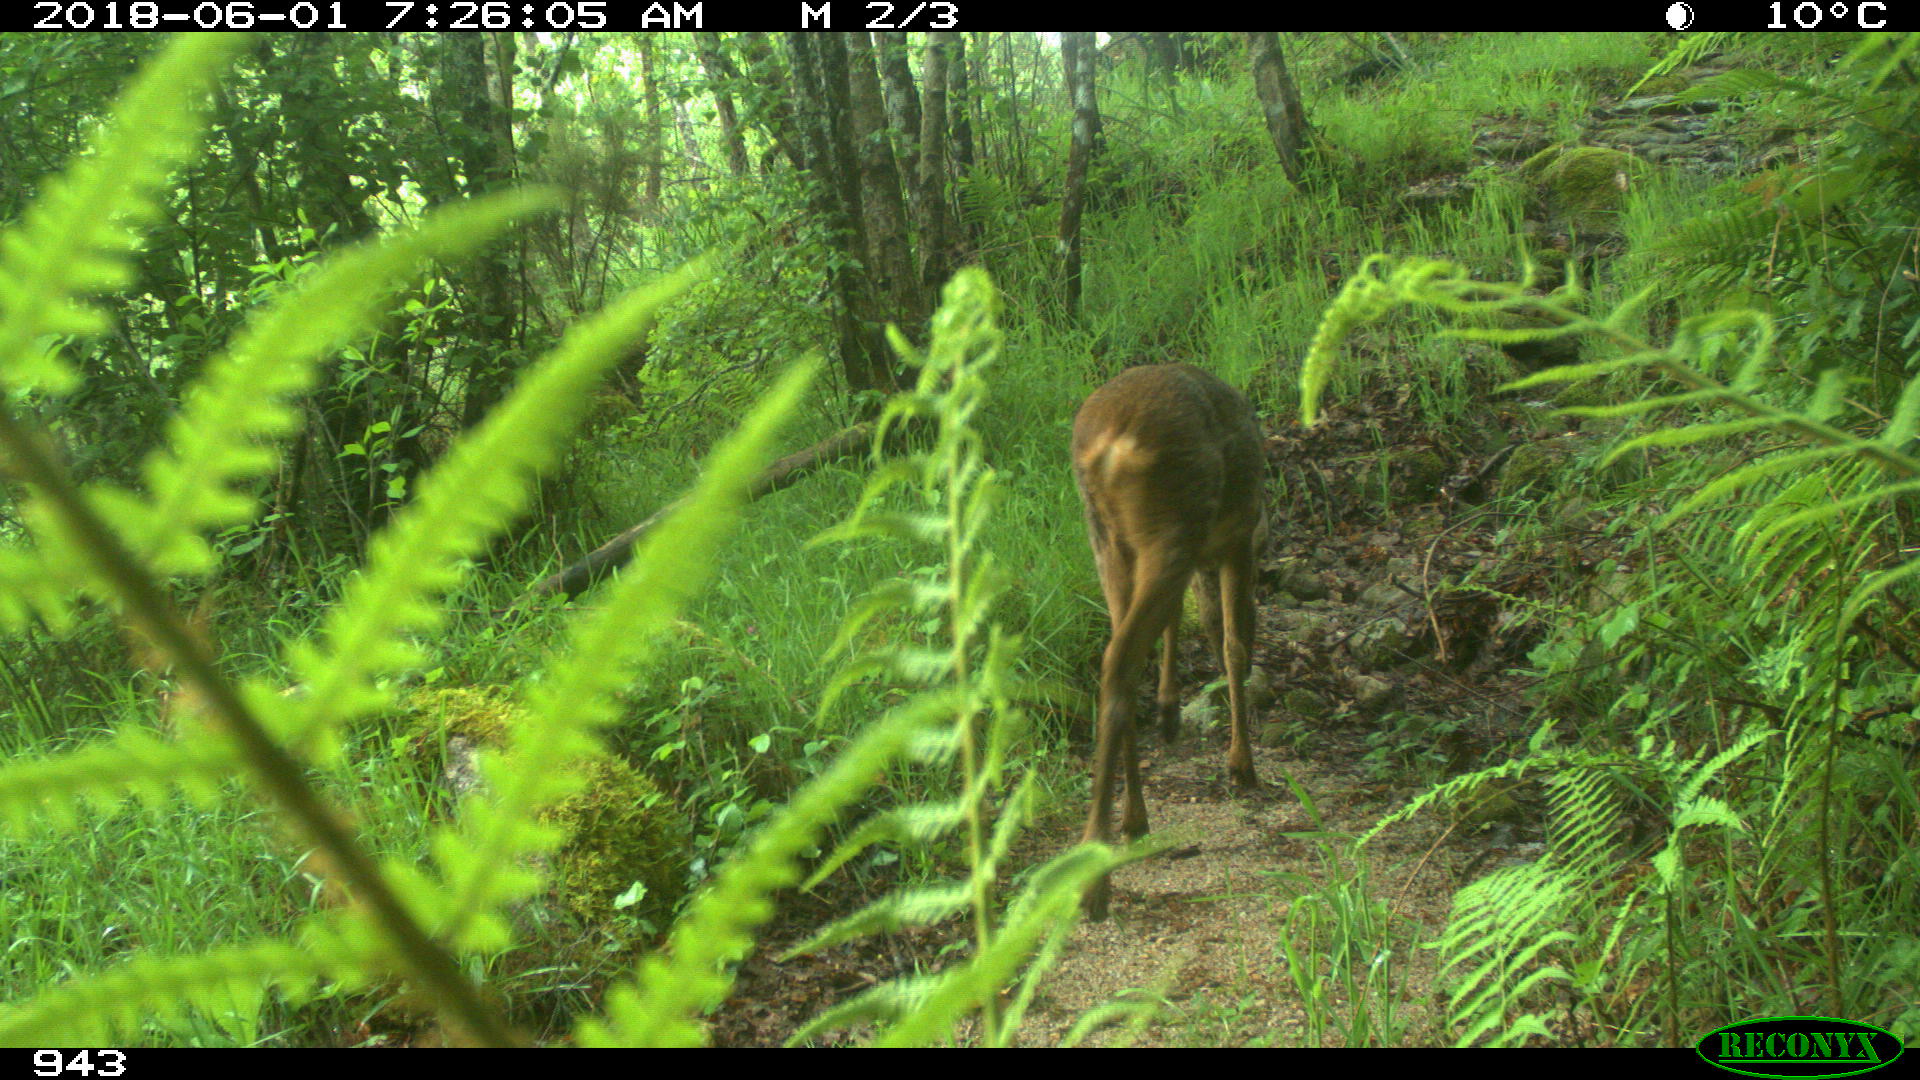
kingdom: Animalia
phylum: Chordata
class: Mammalia
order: Artiodactyla
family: Cervidae
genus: Capreolus
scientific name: Capreolus capreolus
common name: Western roe deer
